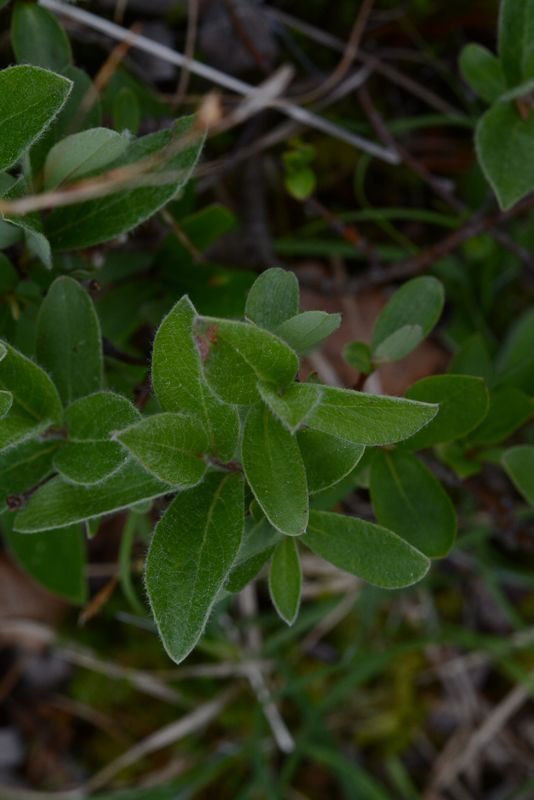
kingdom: Plantae
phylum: Tracheophyta
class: Magnoliopsida
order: Malpighiales
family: Salicaceae
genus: Salix
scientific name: Salix
